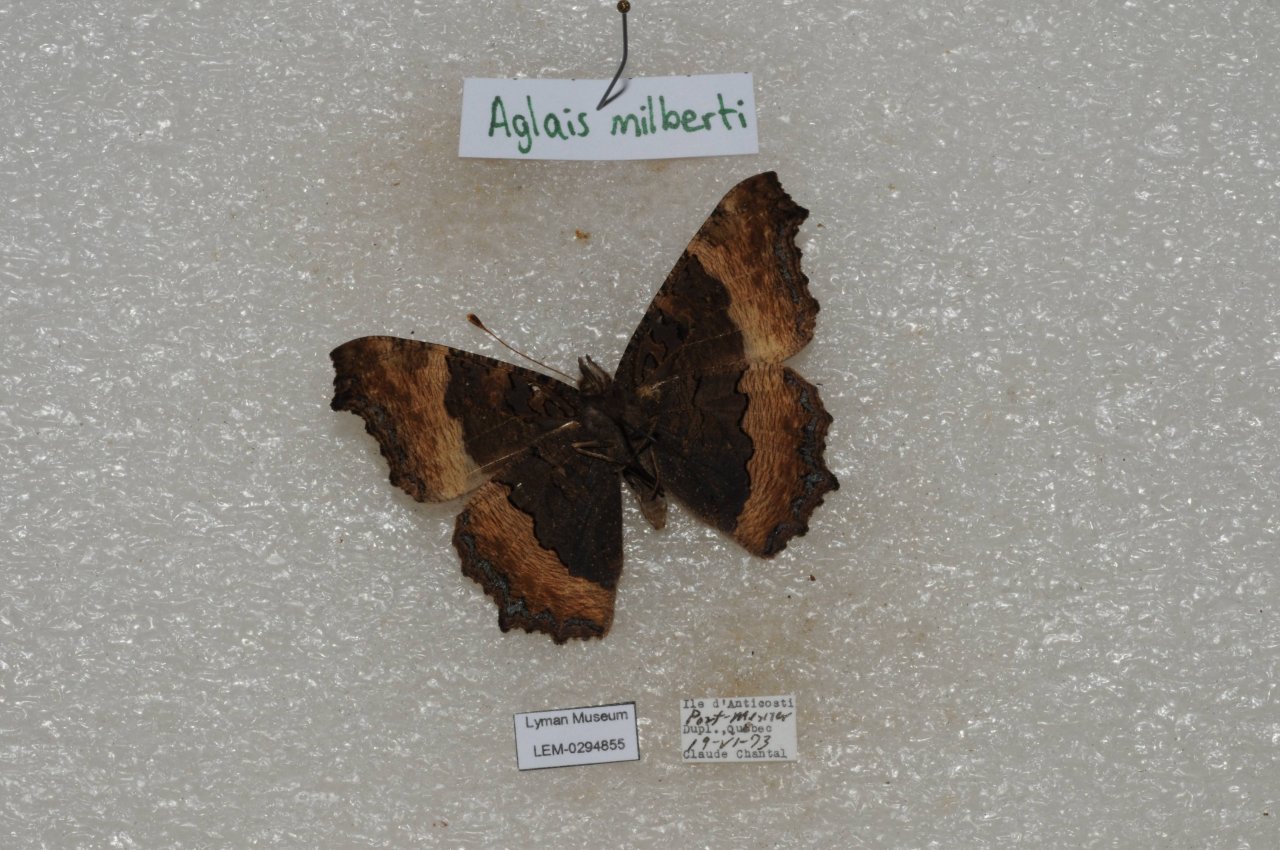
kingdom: Animalia
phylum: Arthropoda
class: Insecta
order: Lepidoptera
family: Nymphalidae
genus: Aglais
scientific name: Aglais milberti
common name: Milbert's Tortoiseshell
